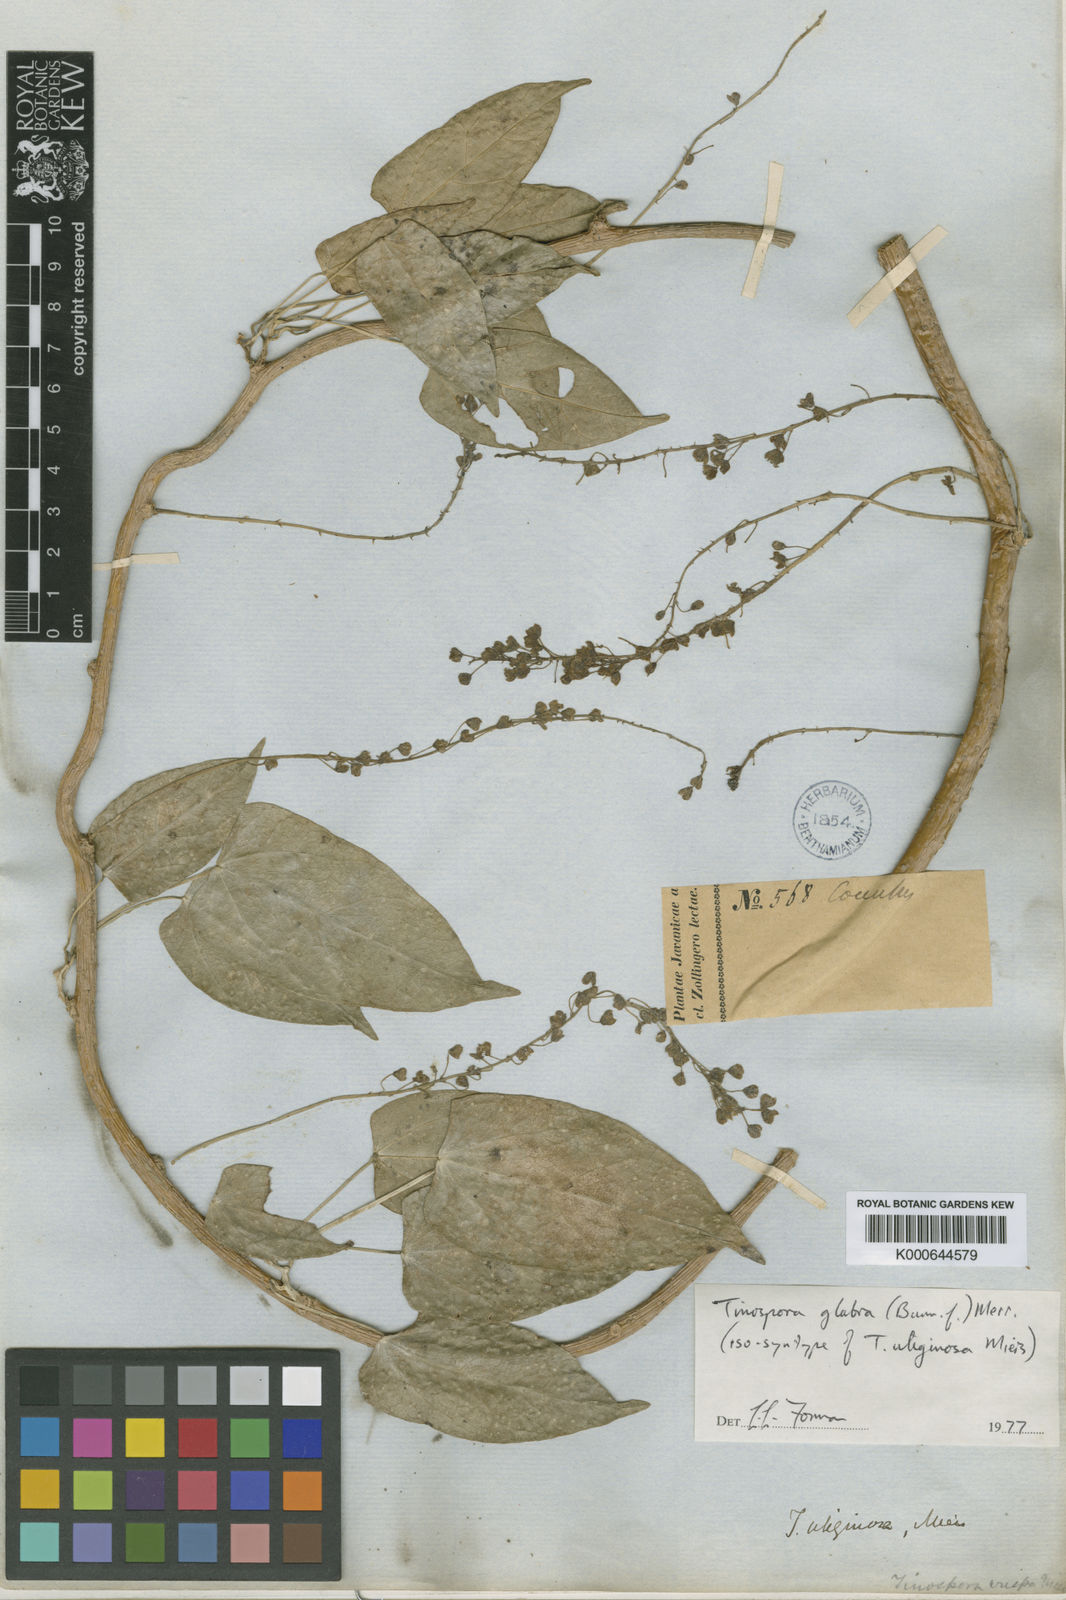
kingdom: Plantae
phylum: Tracheophyta
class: Magnoliopsida
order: Ranunculales
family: Menispermaceae
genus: Tinospora
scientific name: Tinospora glabra
